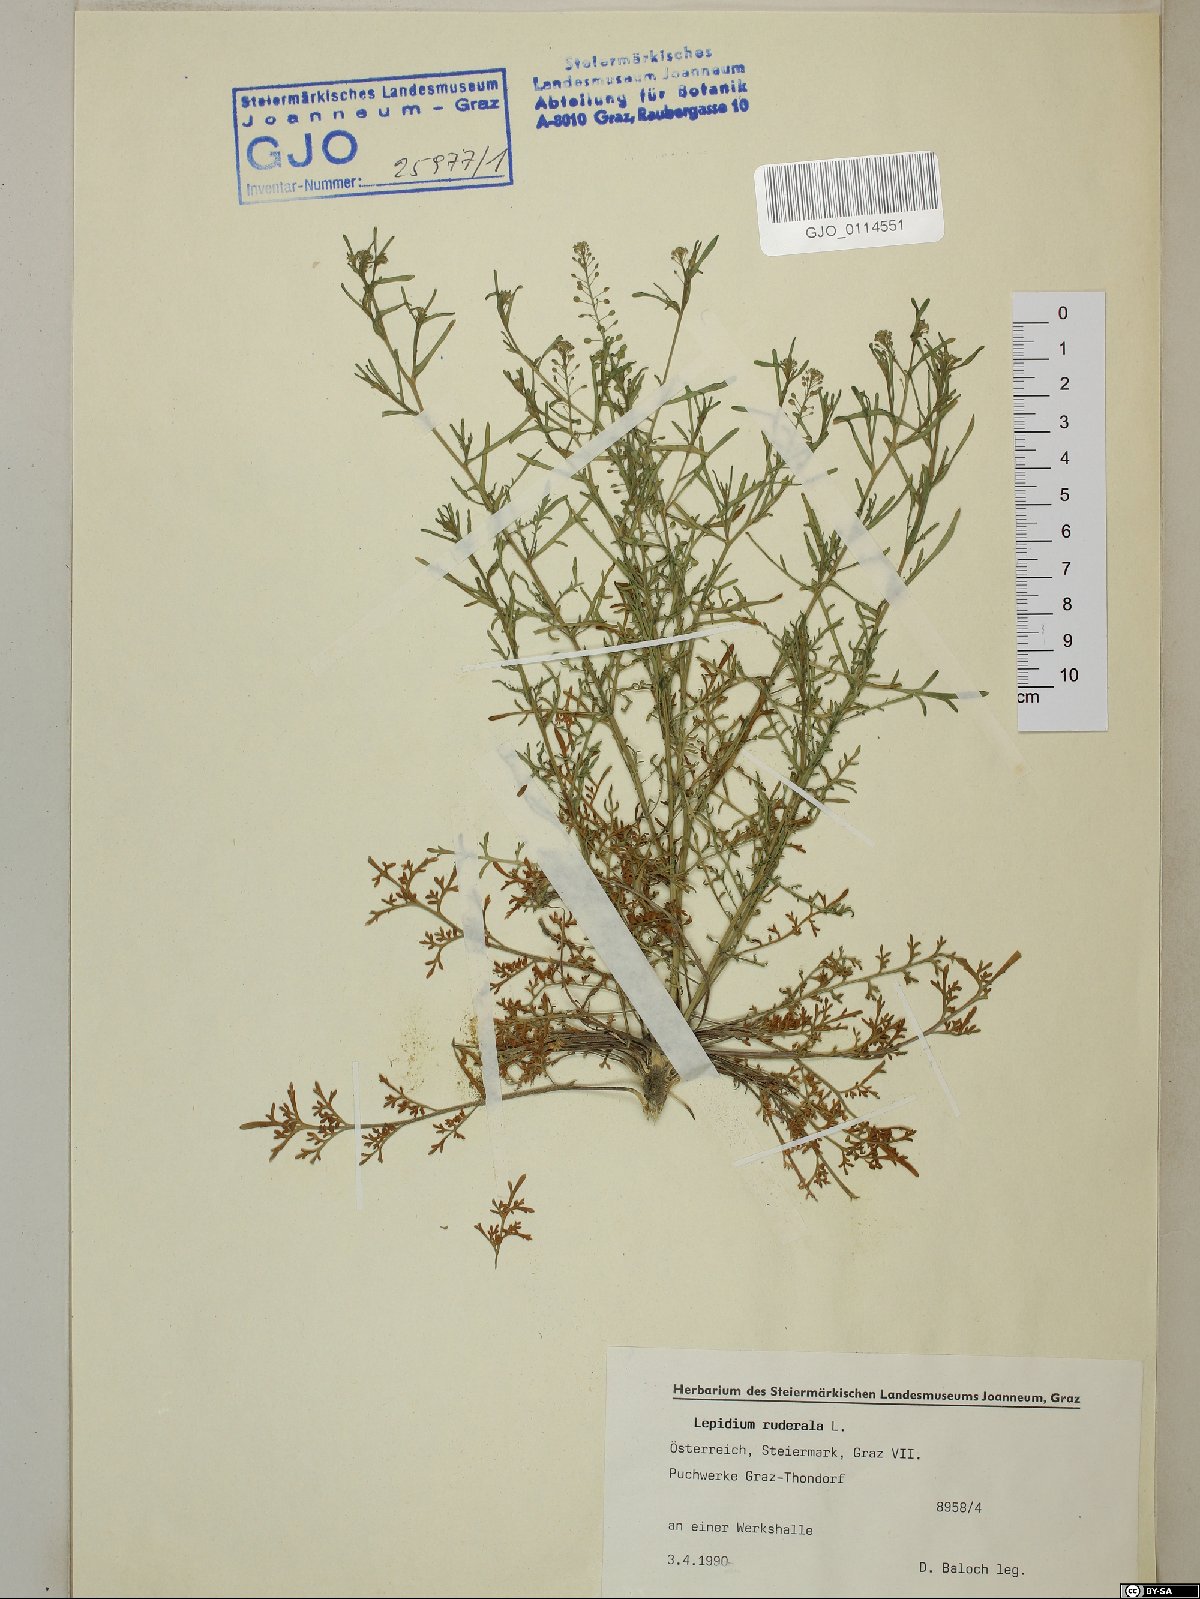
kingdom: Plantae
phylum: Tracheophyta
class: Magnoliopsida
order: Brassicales
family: Brassicaceae
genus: Lepidium
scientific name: Lepidium ruderale
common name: Narrow-leaved pepperwort
